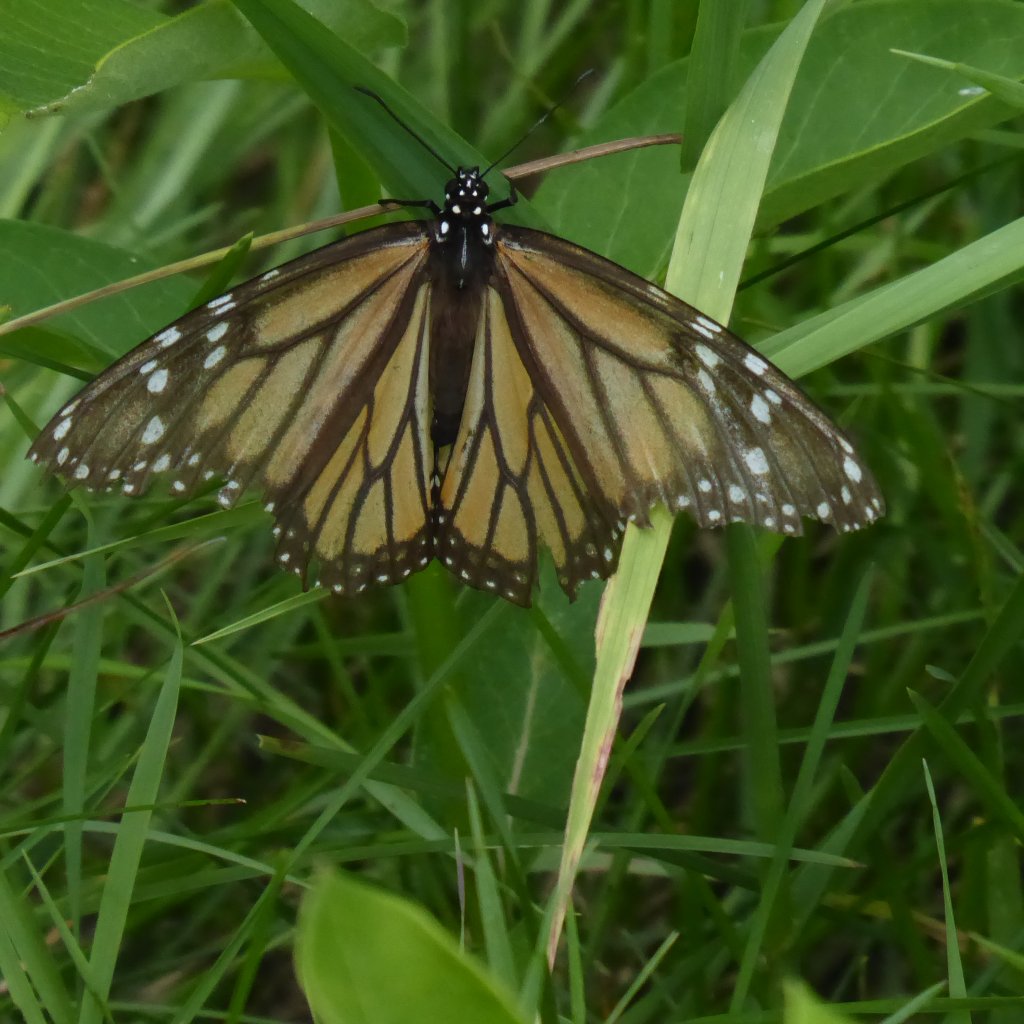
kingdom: Animalia
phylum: Arthropoda
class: Insecta
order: Lepidoptera
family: Nymphalidae
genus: Danaus
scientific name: Danaus plexippus
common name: Monarch
